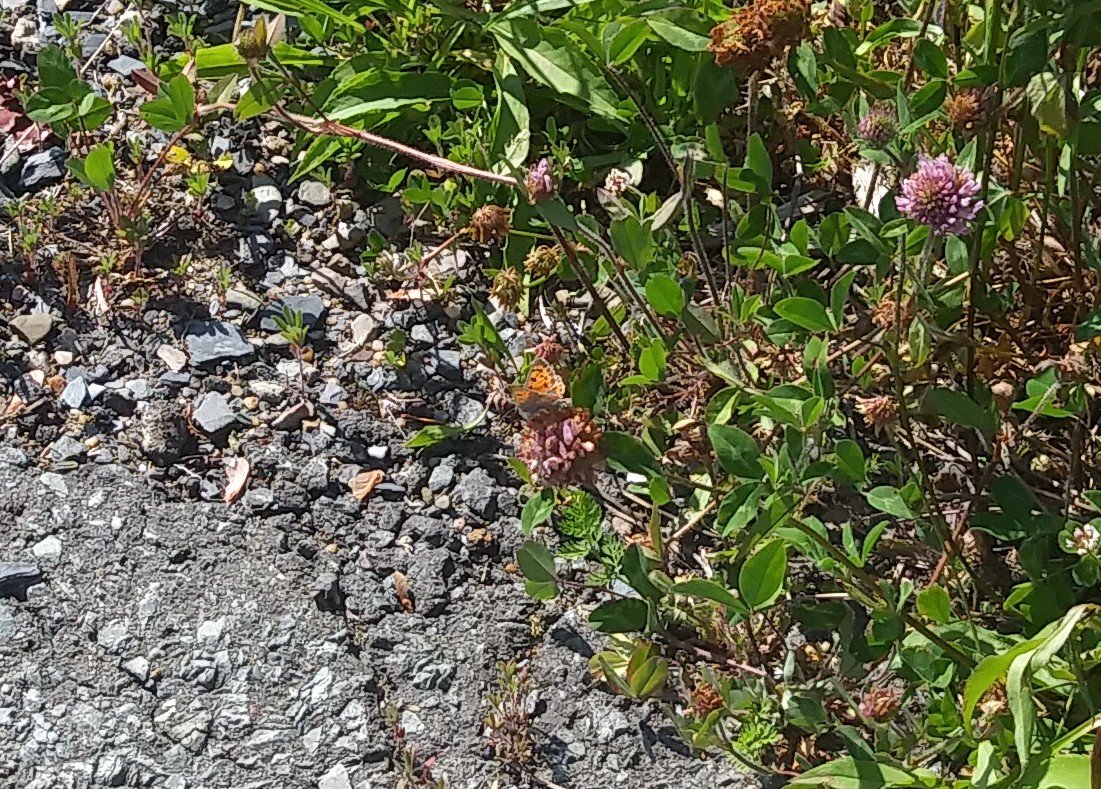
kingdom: Animalia
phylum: Arthropoda
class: Insecta
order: Lepidoptera
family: Lycaenidae
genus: Lycaena
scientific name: Lycaena phlaeas
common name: American Copper
